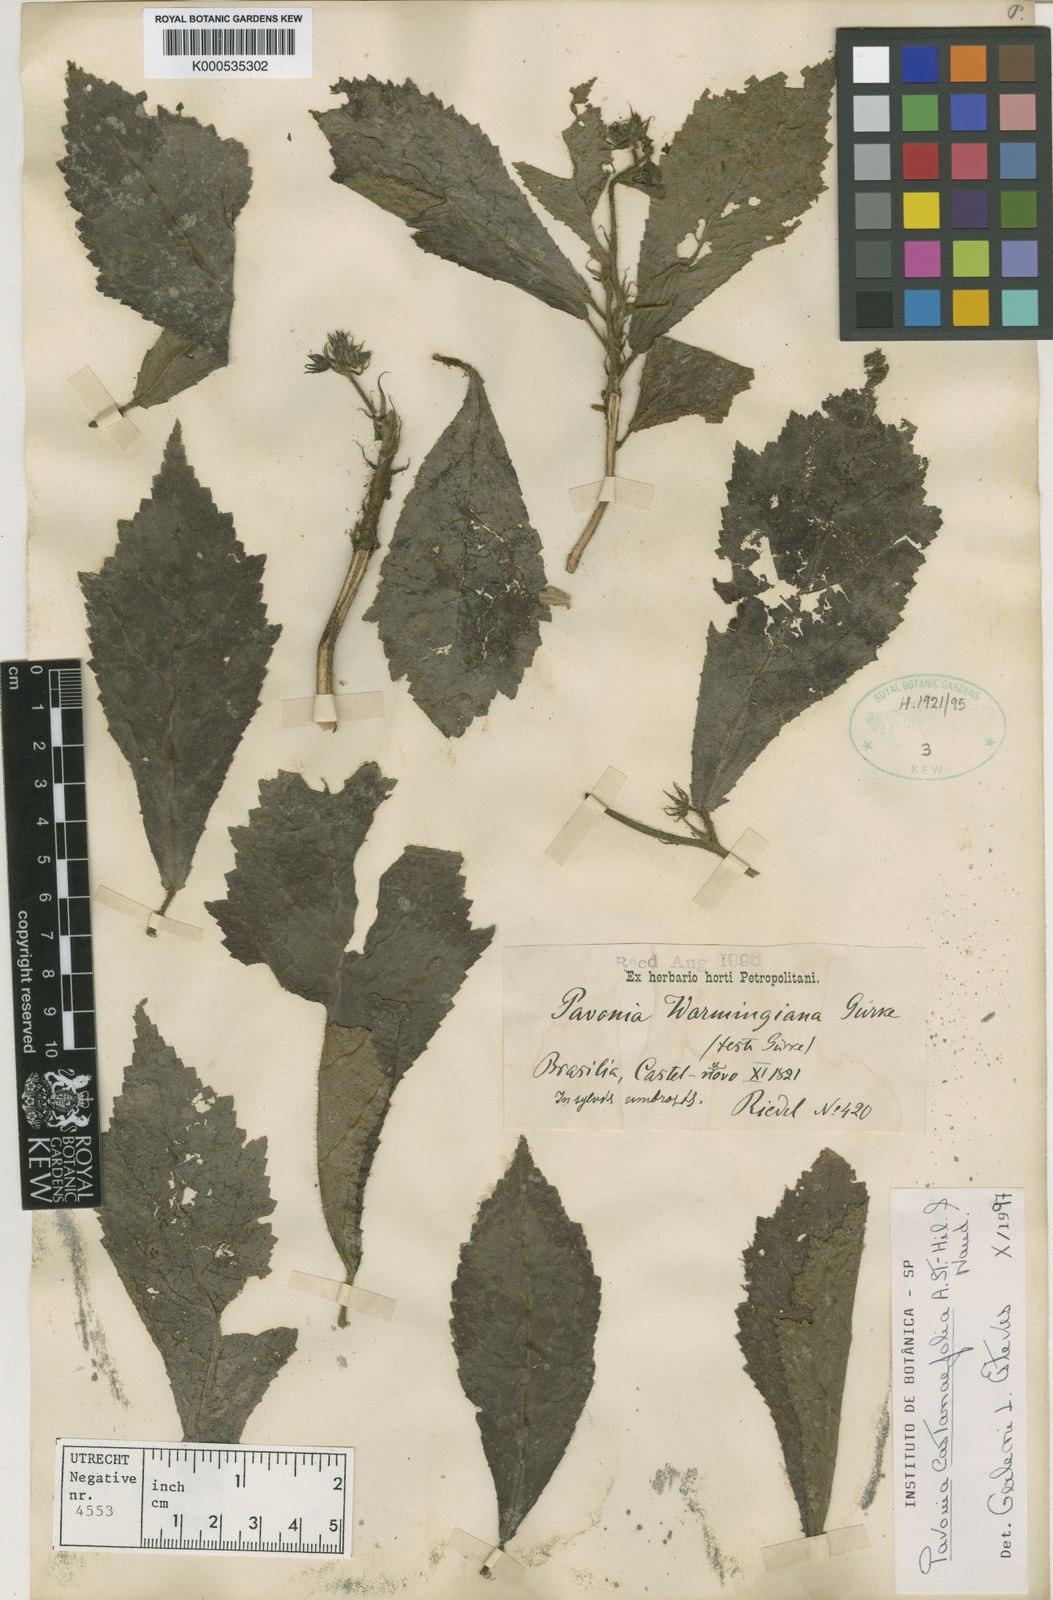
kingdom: Plantae
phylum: Tracheophyta
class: Magnoliopsida
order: Malvales
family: Malvaceae
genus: Pavonia
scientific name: Pavonia castaneifolia
